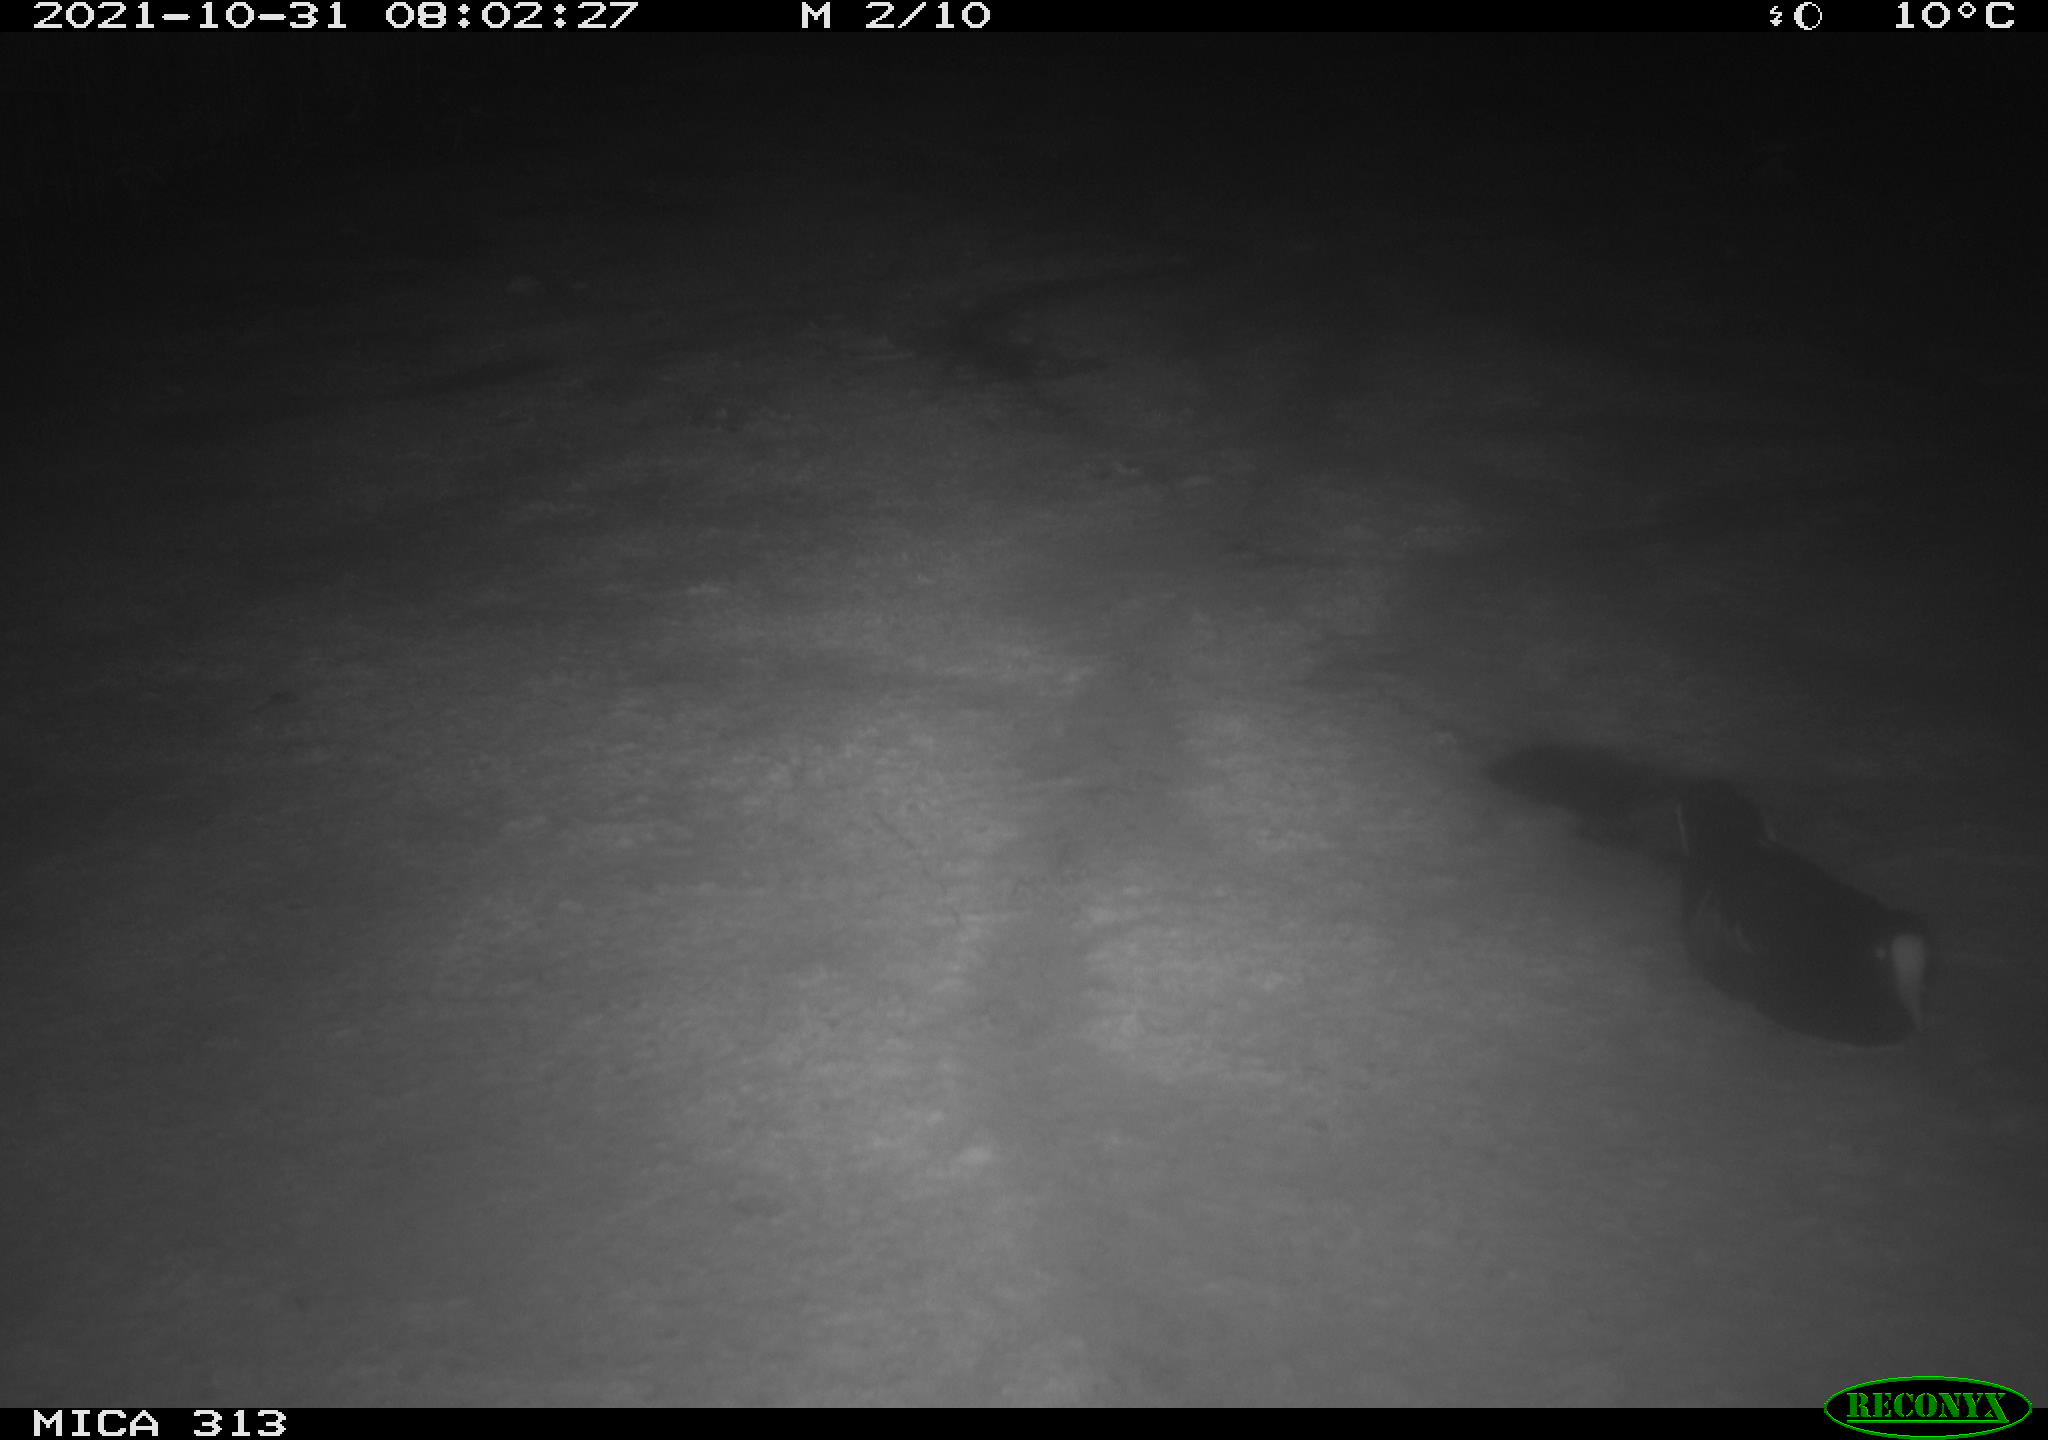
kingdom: Animalia
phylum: Chordata
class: Aves
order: Gruiformes
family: Rallidae
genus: Gallinula
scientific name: Gallinula chloropus
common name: Common moorhen
